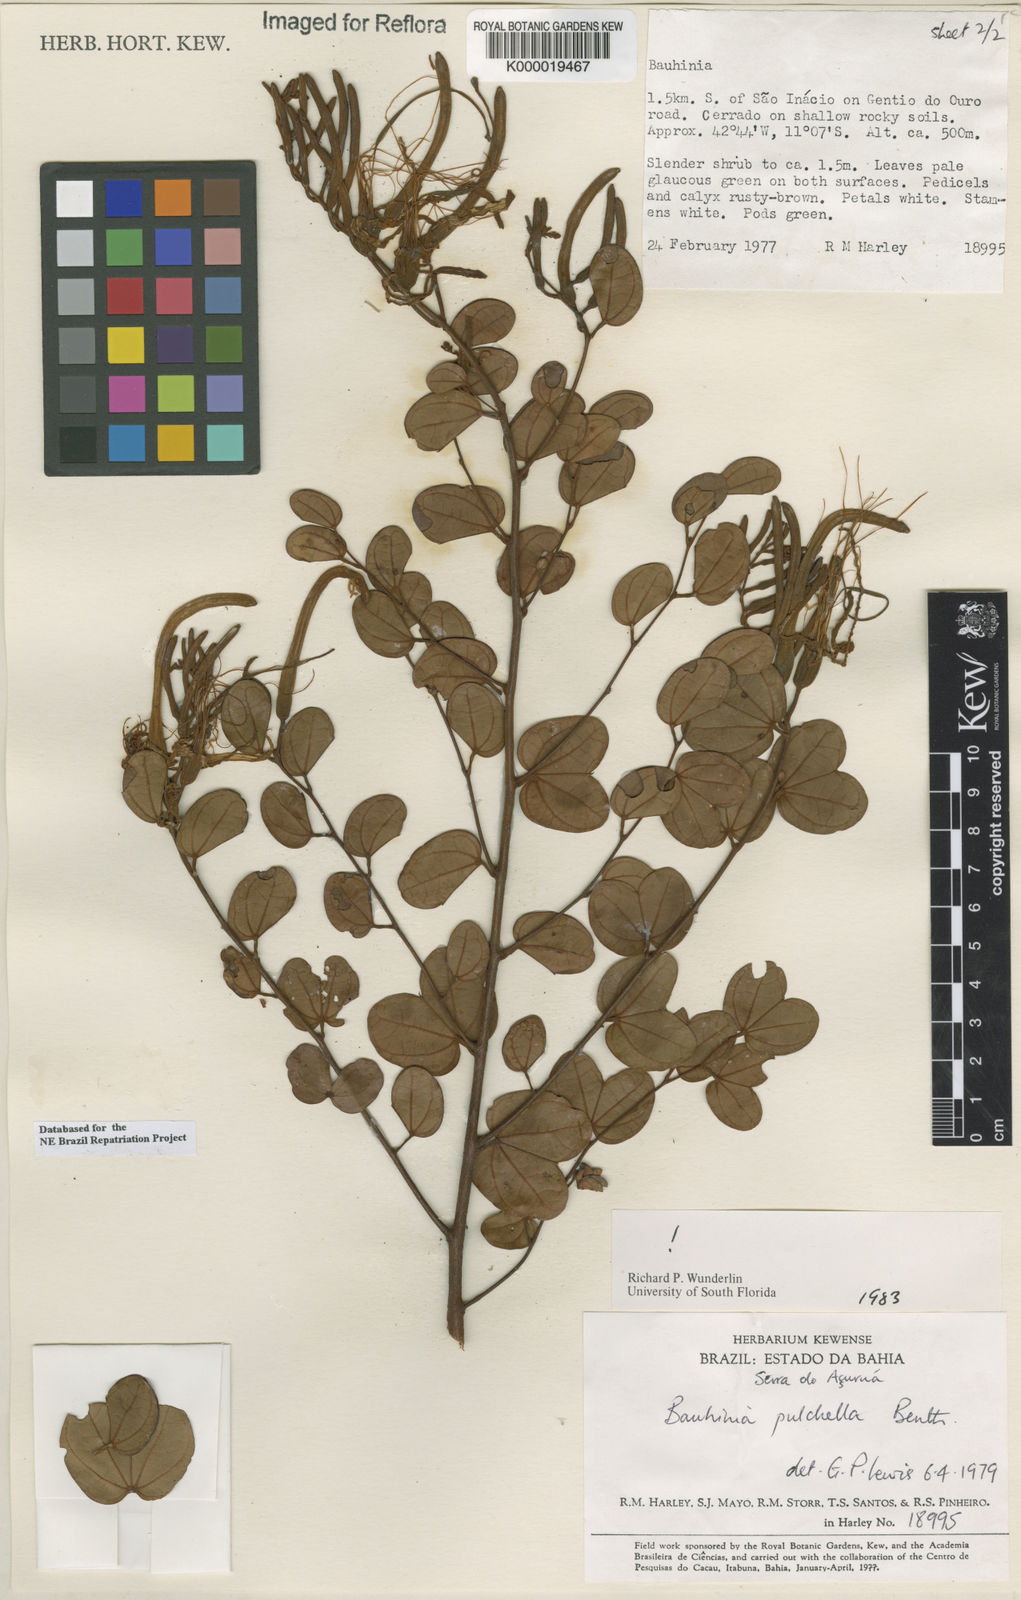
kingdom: Plantae
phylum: Tracheophyta
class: Magnoliopsida
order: Fabales
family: Fabaceae
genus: Bauhinia
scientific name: Bauhinia pulchella
